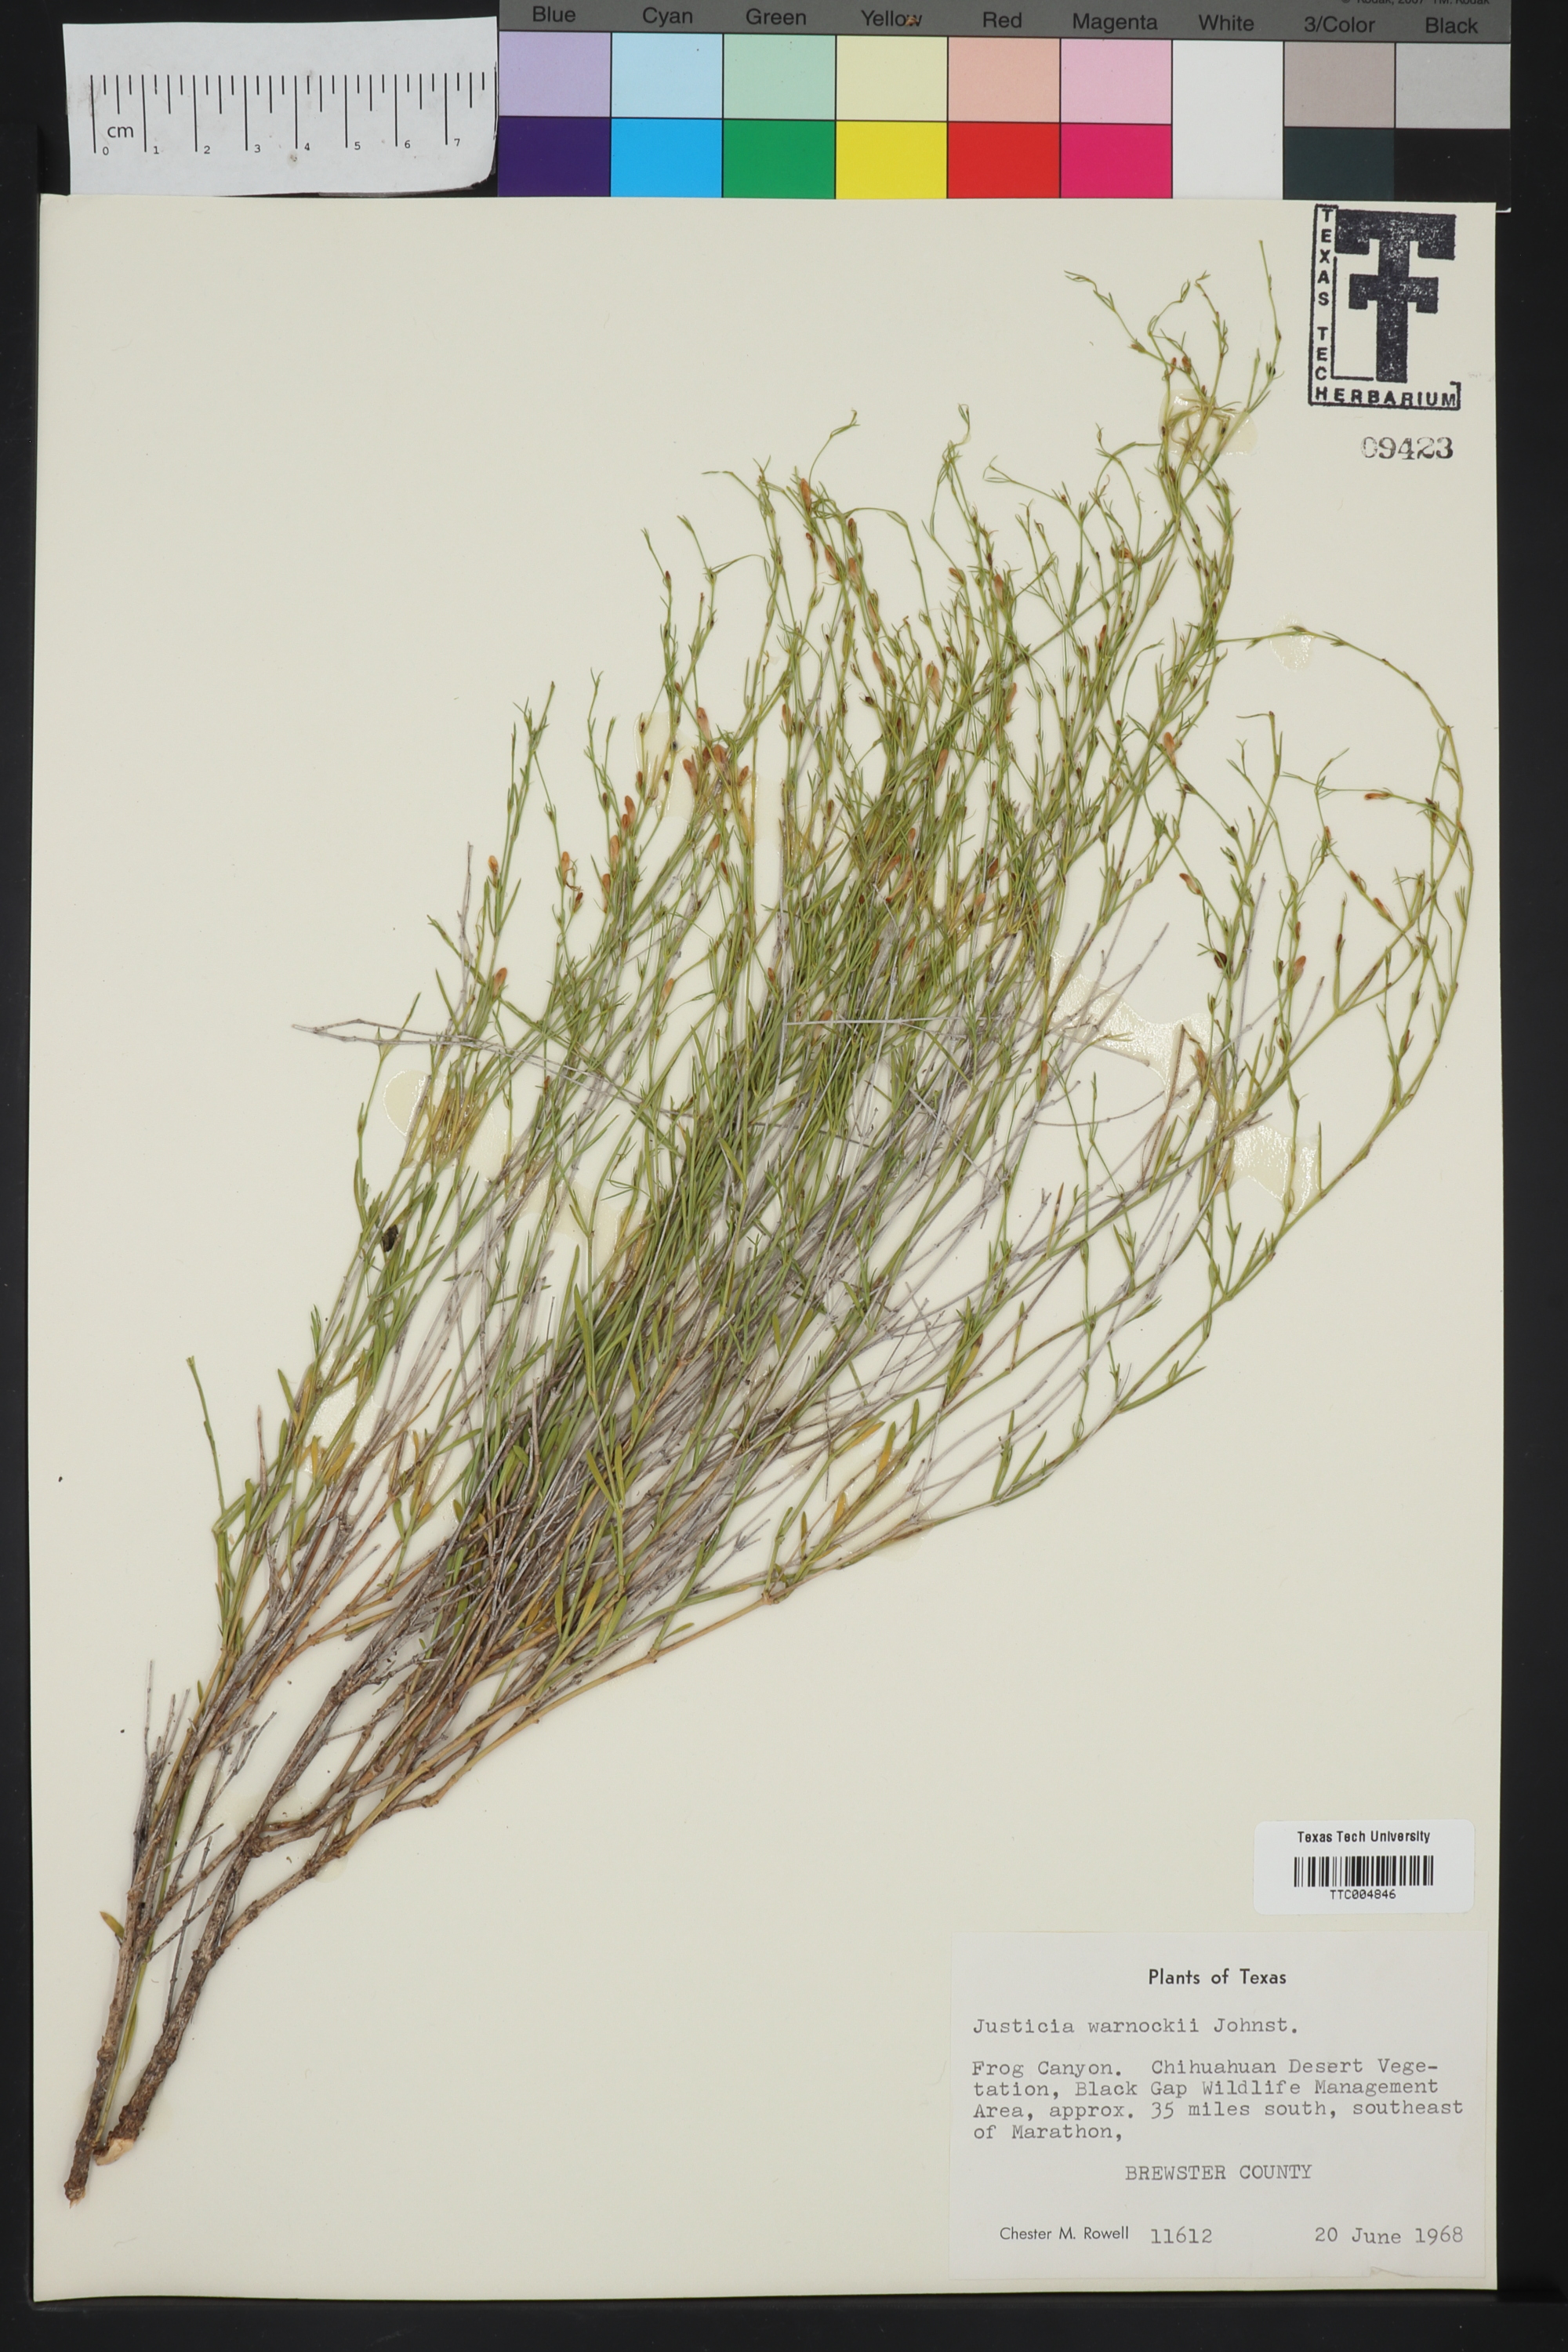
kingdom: Plantae
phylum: Tracheophyta
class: Magnoliopsida
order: Lamiales
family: Acanthaceae
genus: Justicia
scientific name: Justicia warnockii
